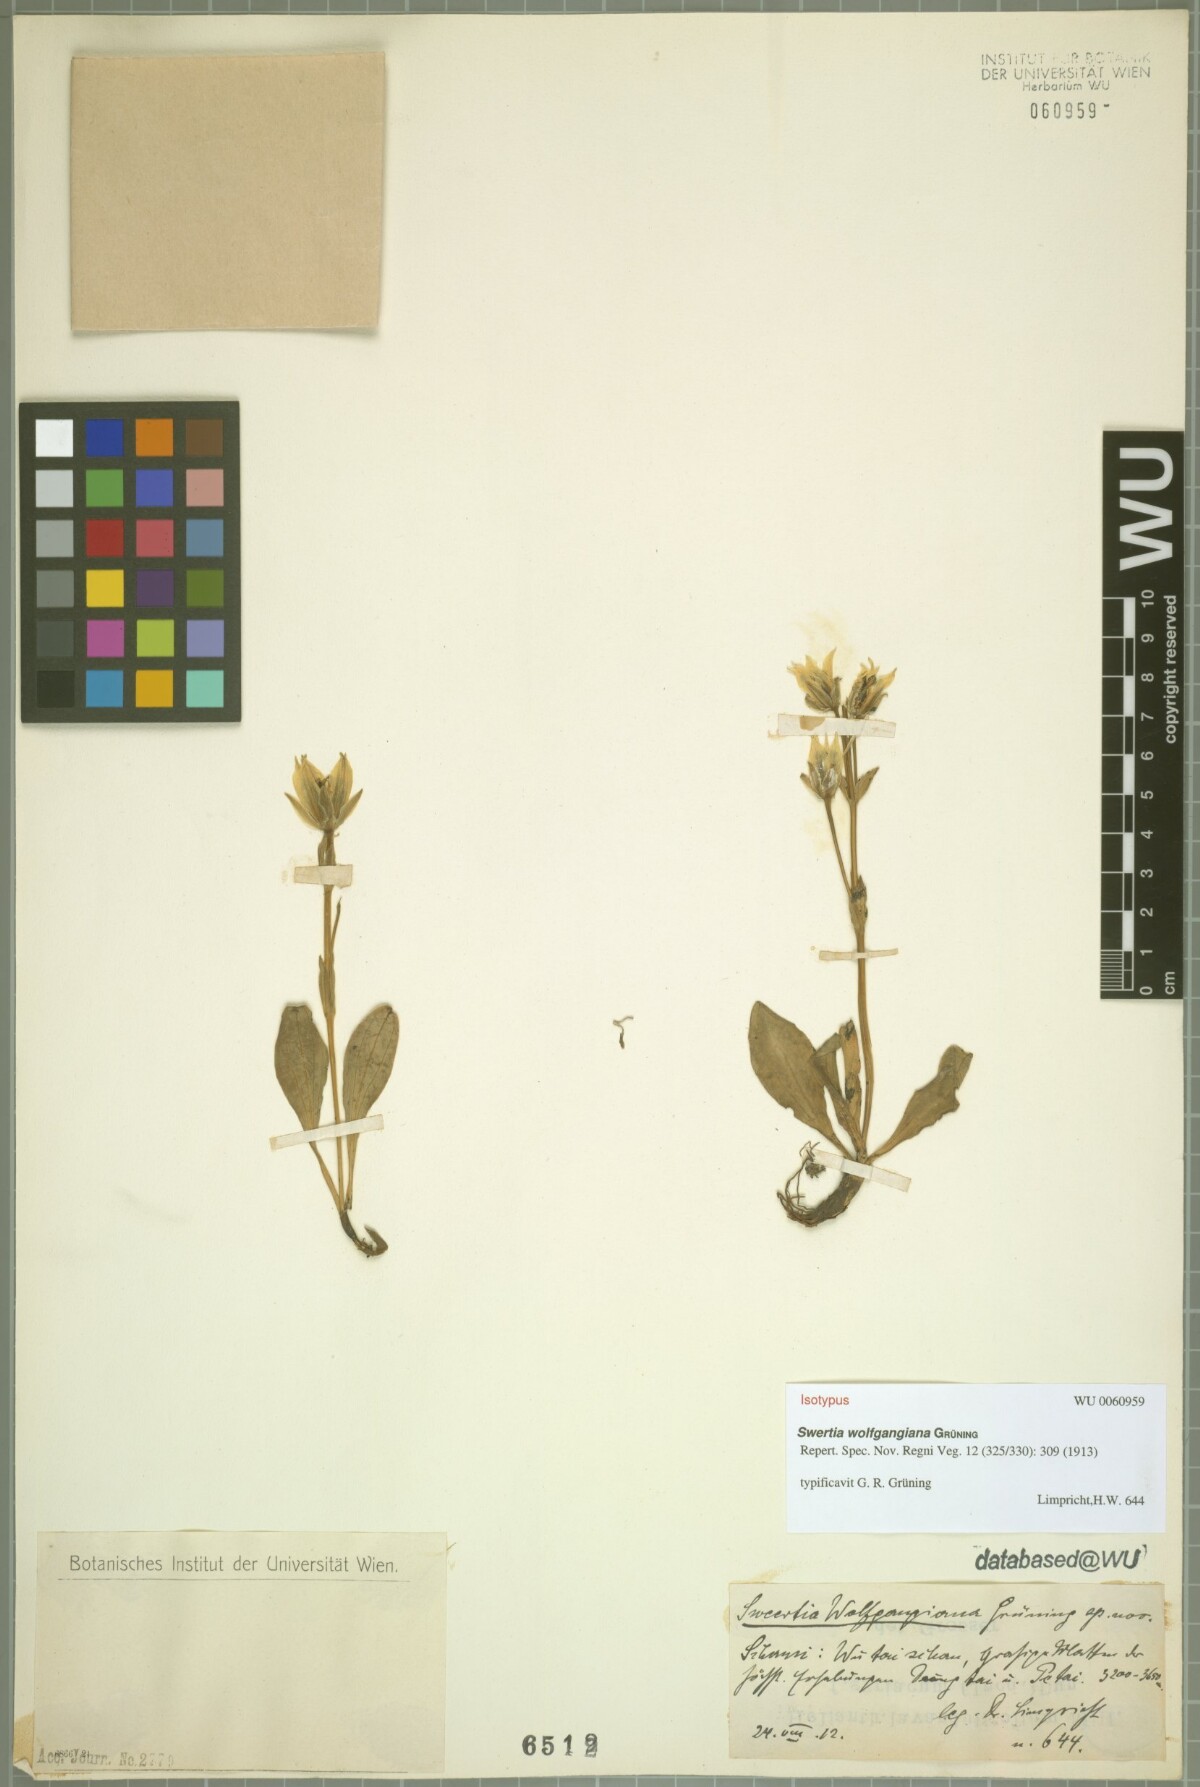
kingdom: Plantae
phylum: Tracheophyta
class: Magnoliopsida
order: Gentianales
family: Gentianaceae
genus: Swertia
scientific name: Swertia wolfgangiana
